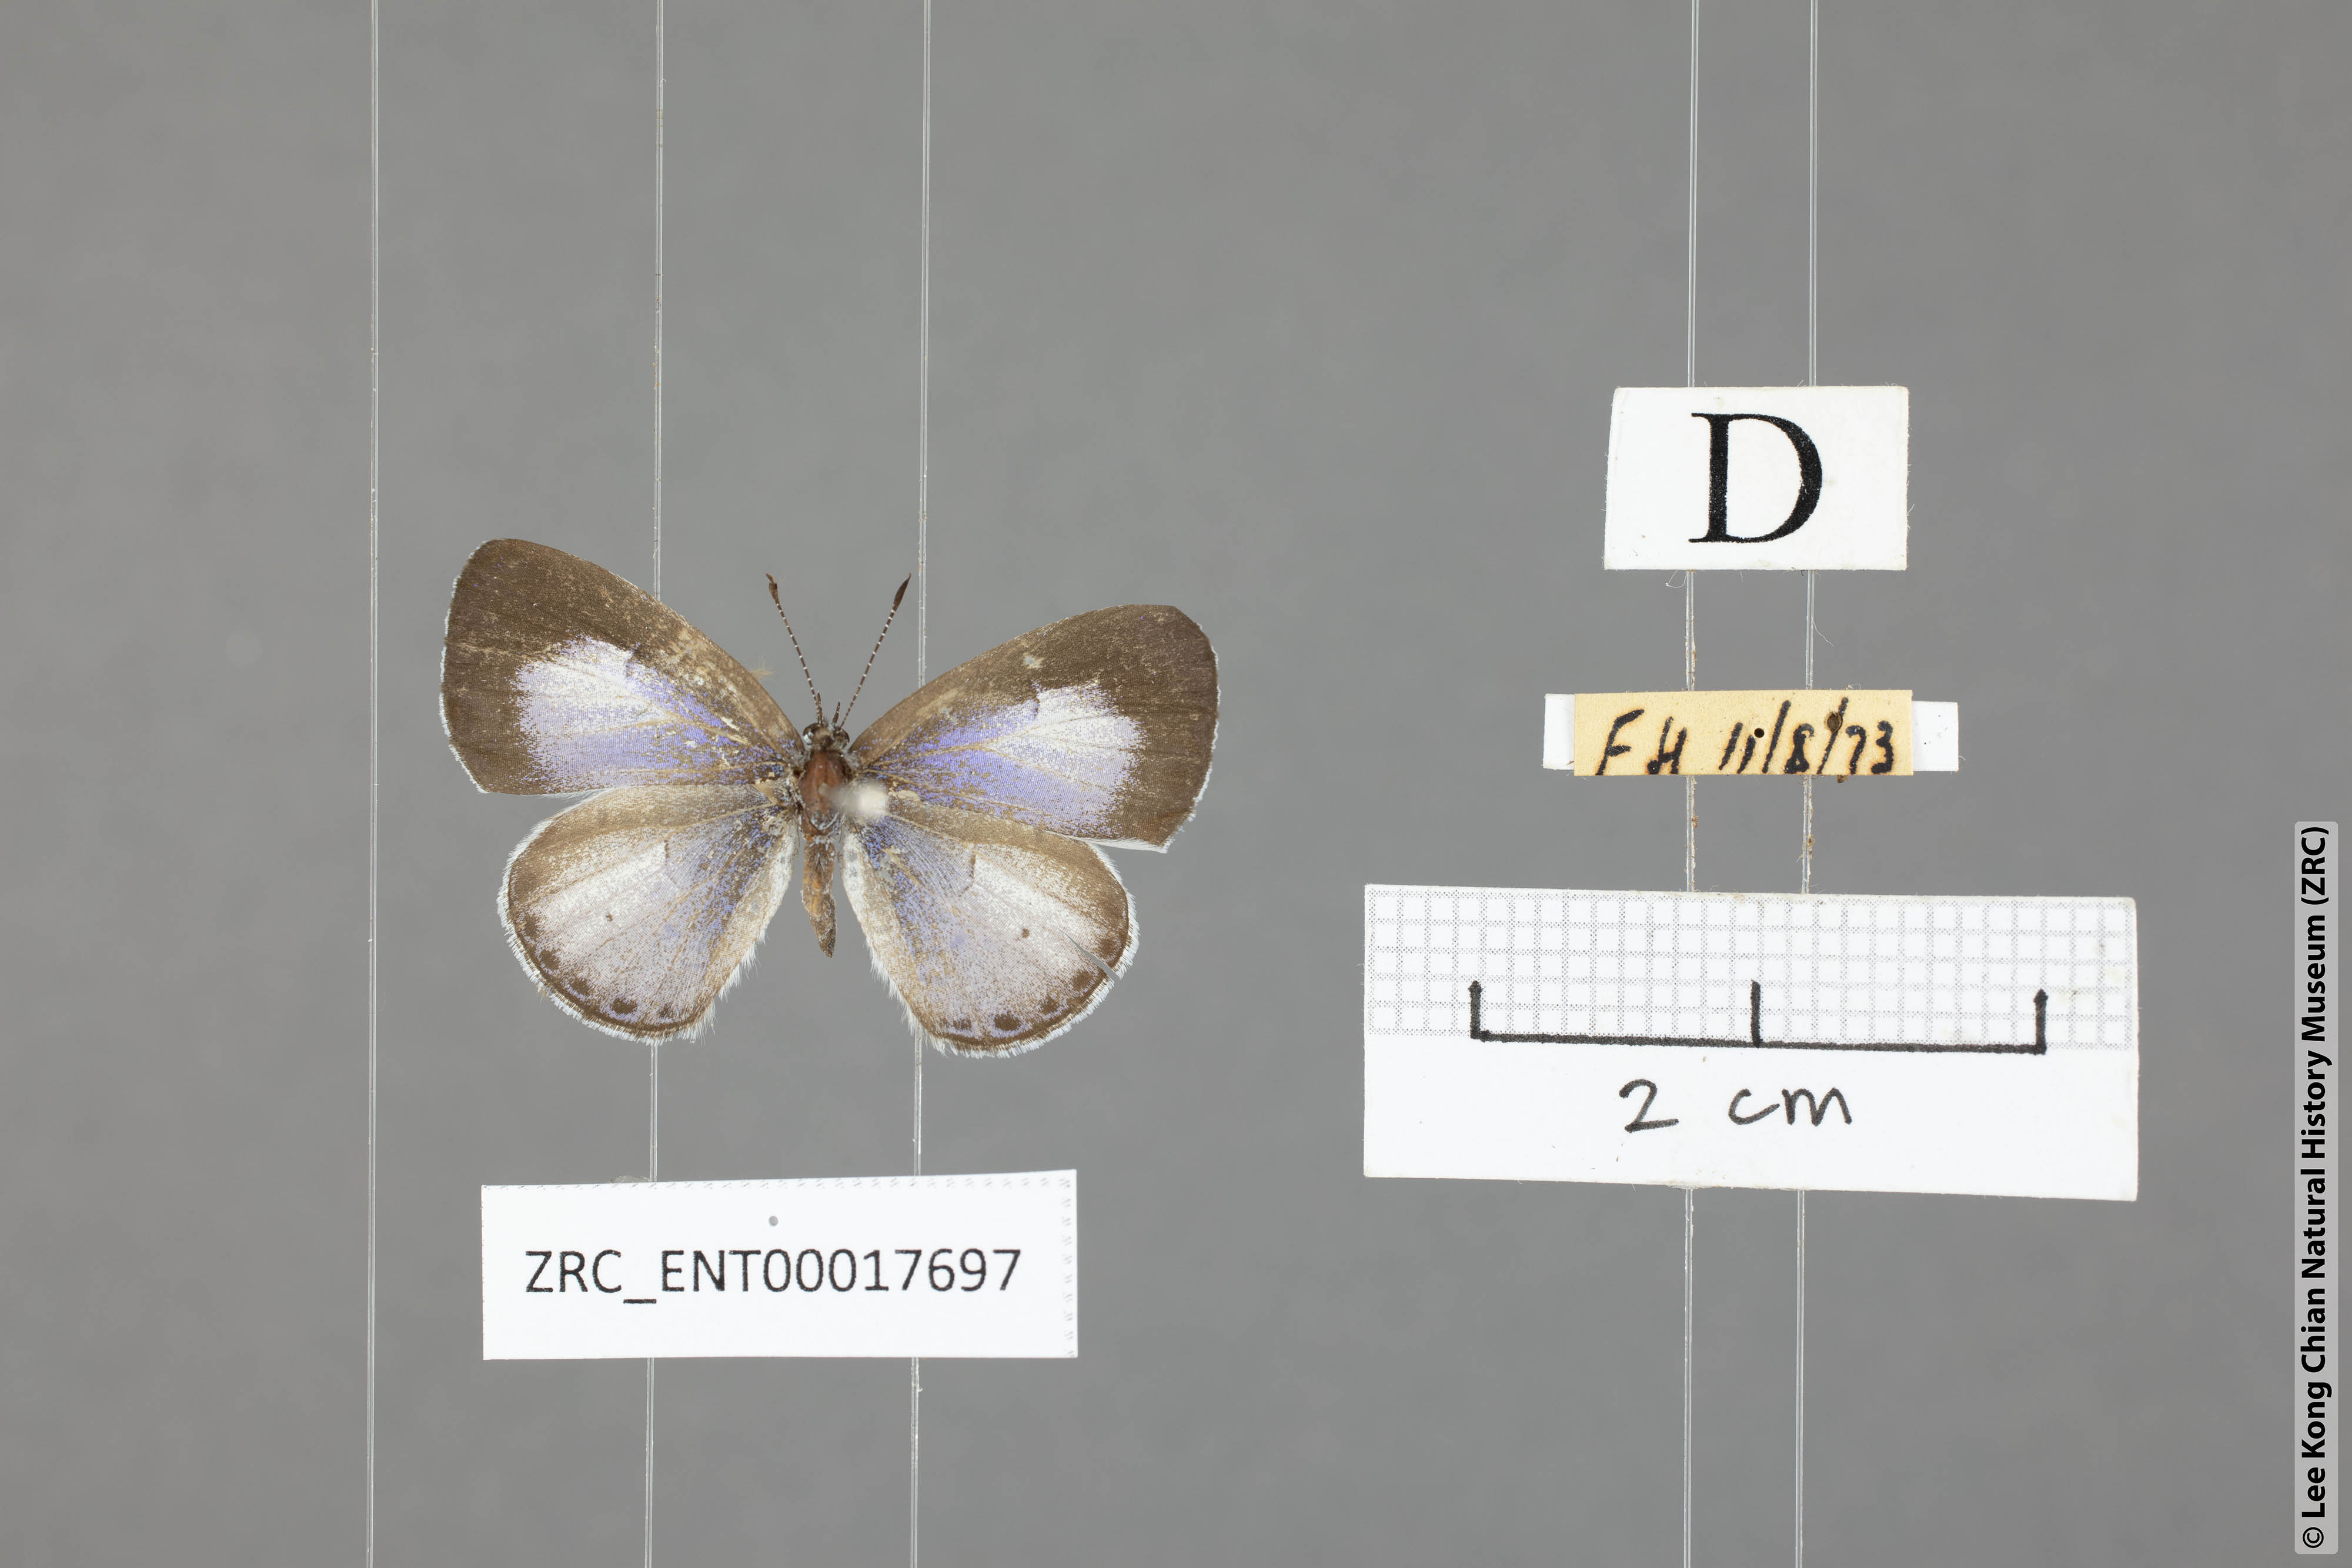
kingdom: Animalia
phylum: Arthropoda
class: Insecta
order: Lepidoptera
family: Lycaenidae
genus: Udara
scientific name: Udara camenae
